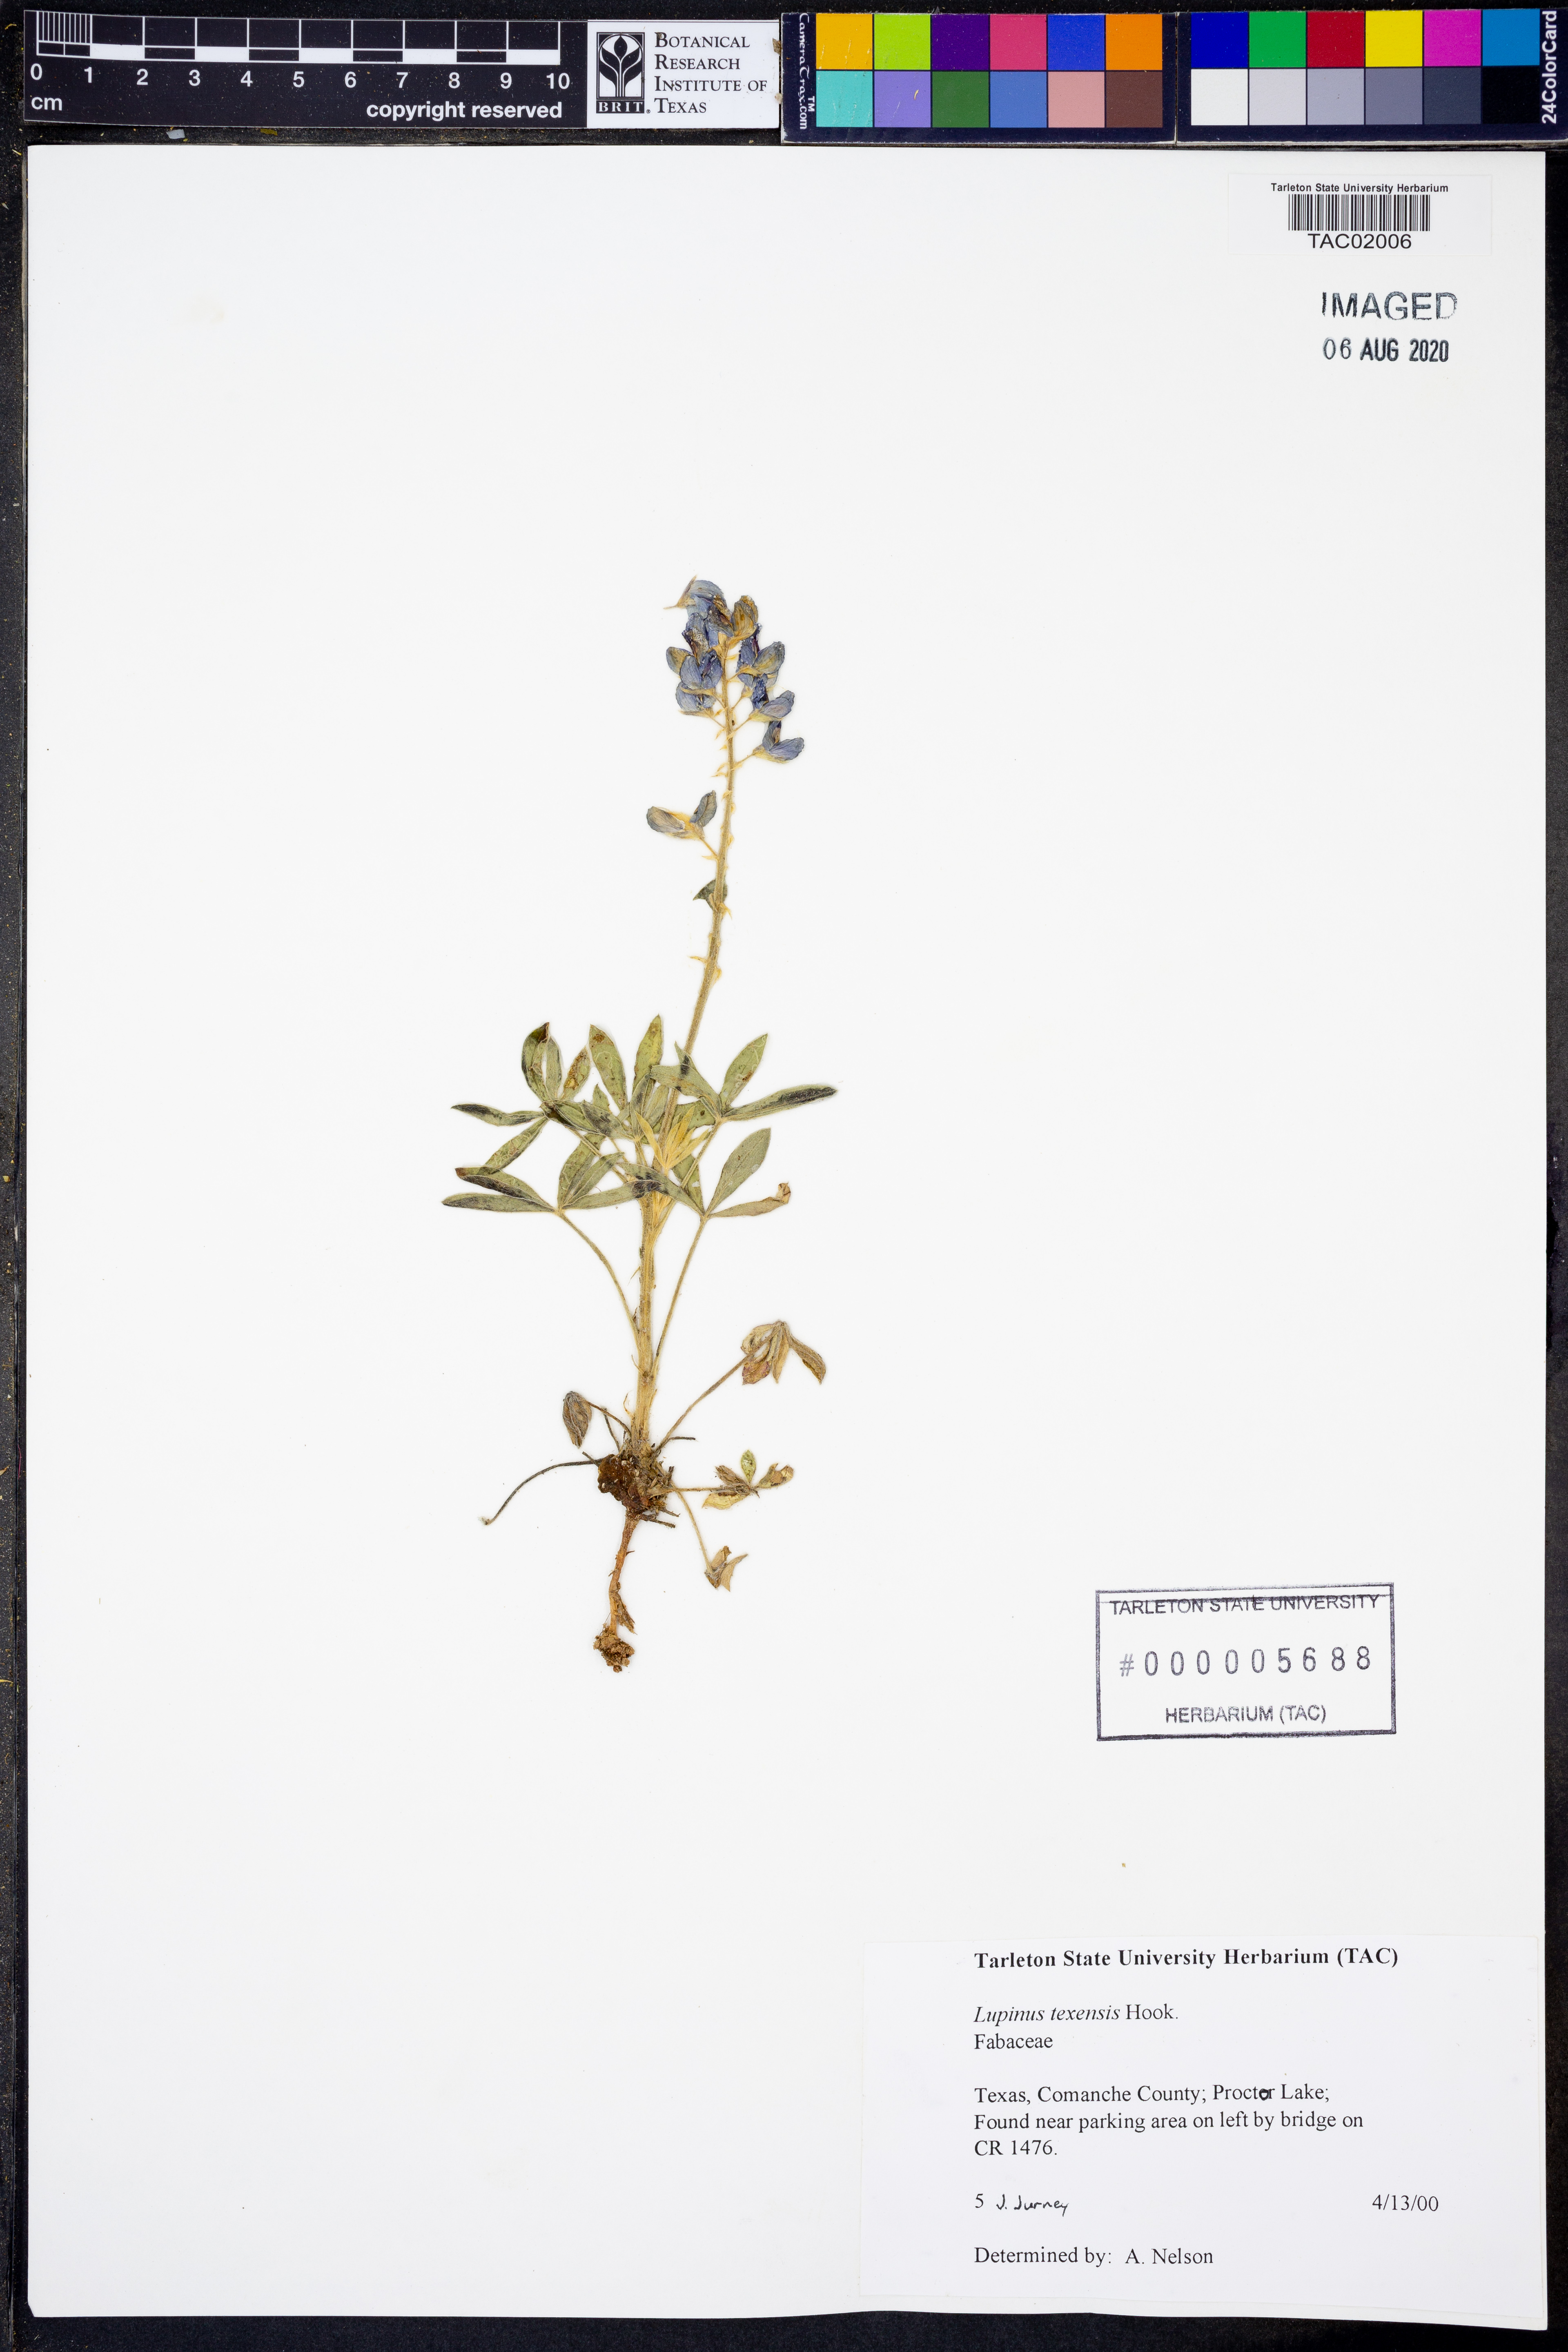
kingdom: Plantae
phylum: Tracheophyta
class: Magnoliopsida
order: Fabales
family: Fabaceae
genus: Lupinus
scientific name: Lupinus texensis
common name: Texas bluebonnet
